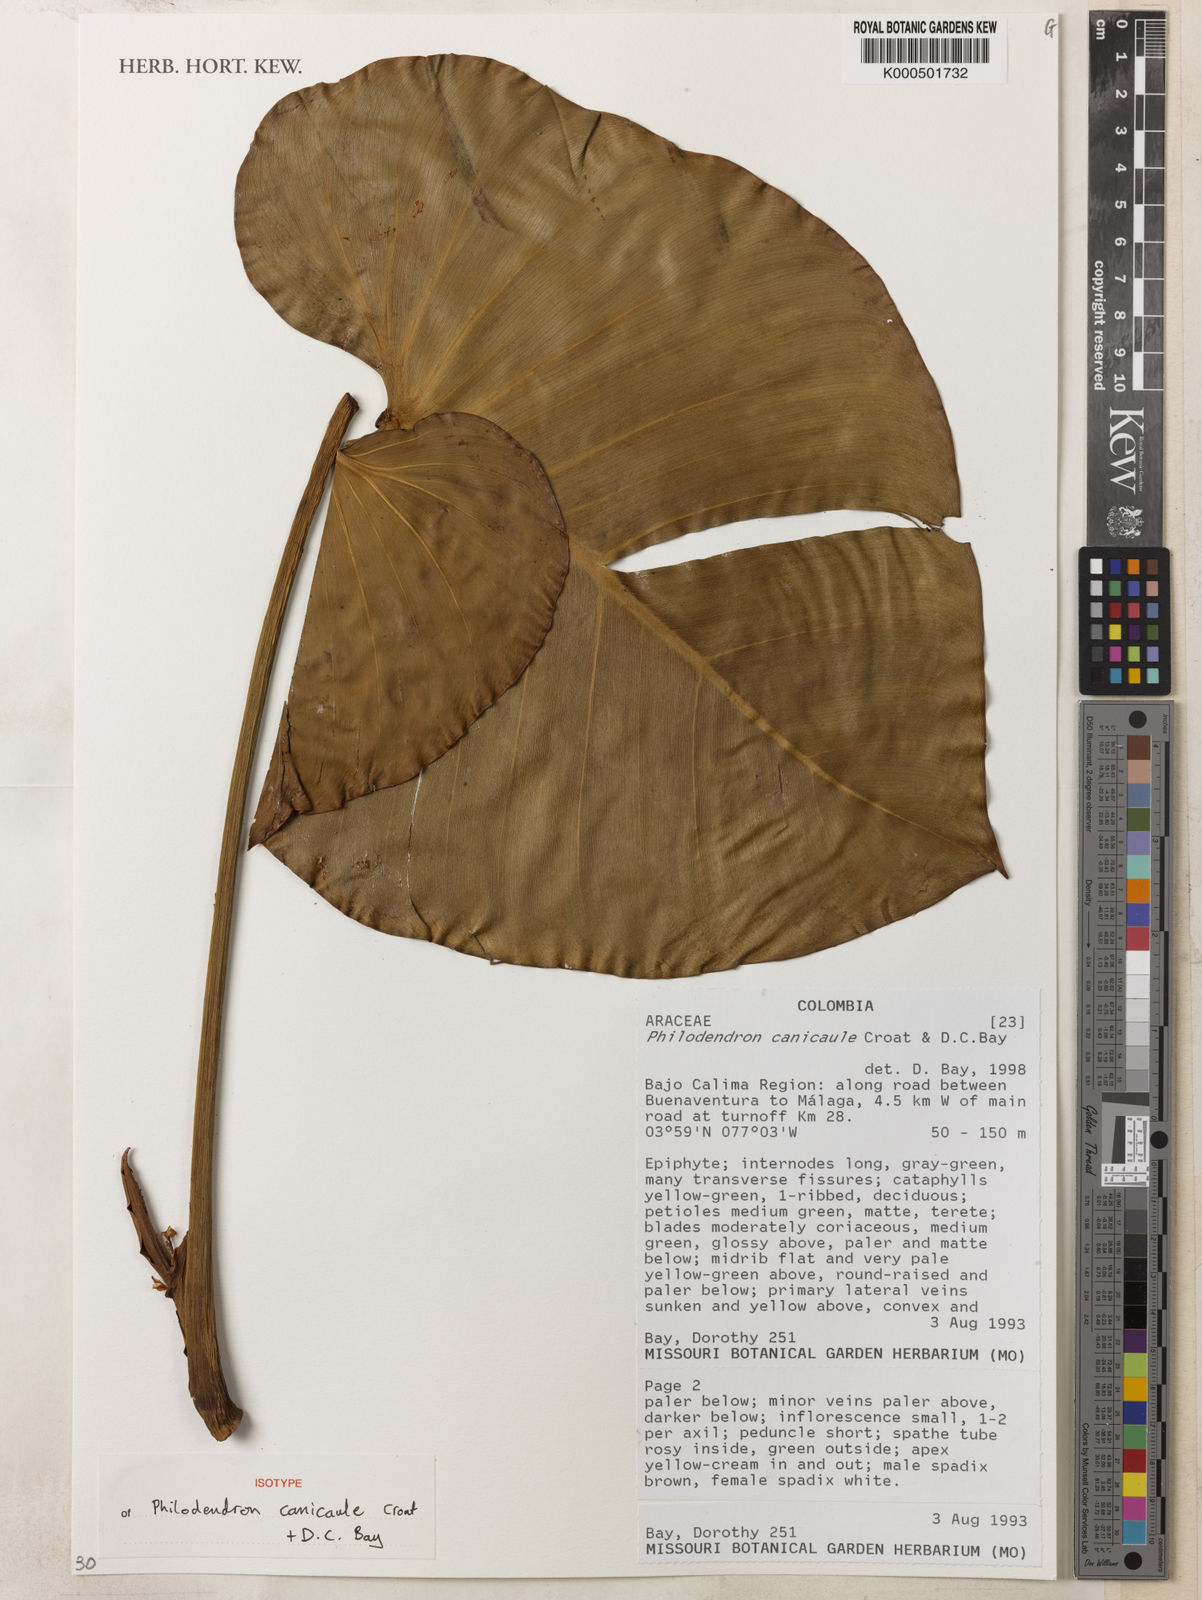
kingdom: Plantae
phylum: Tracheophyta
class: Liliopsida
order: Alismatales
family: Araceae
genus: Philodendron
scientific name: Philodendron canicaule
